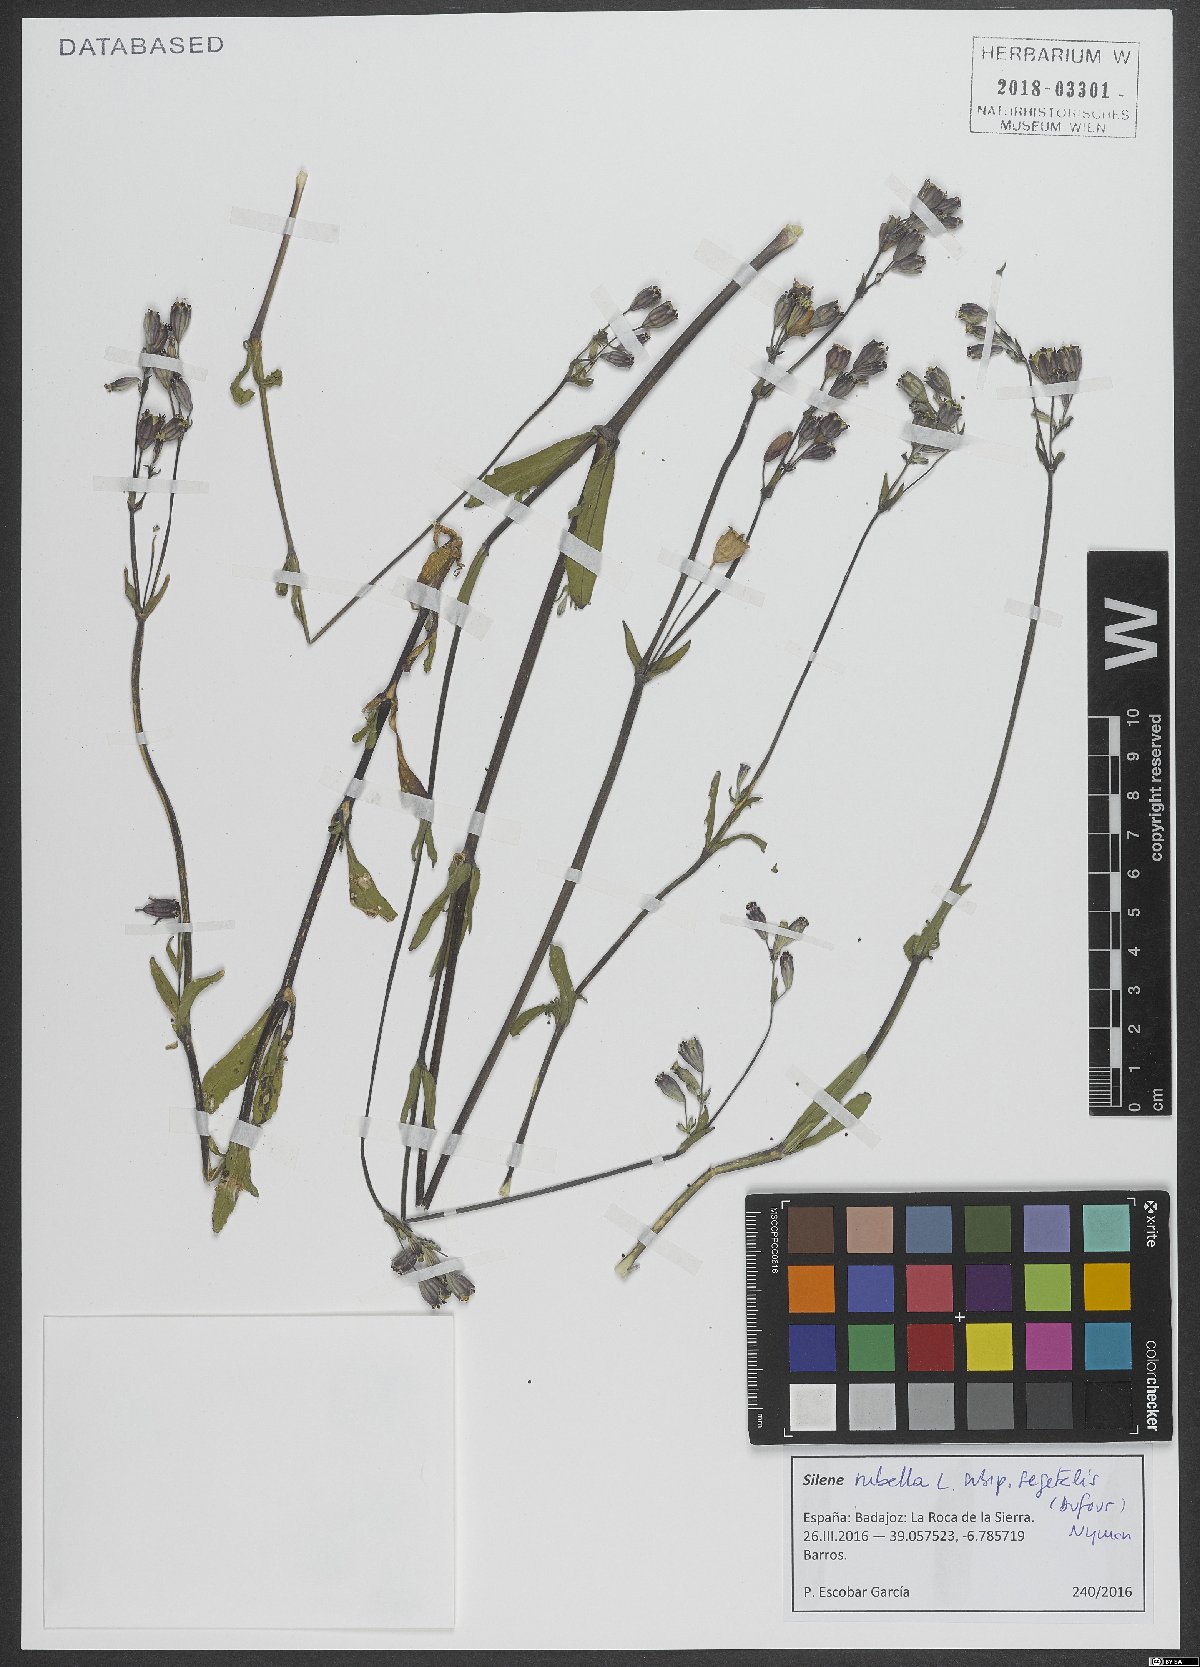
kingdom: Plantae
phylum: Tracheophyta
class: Magnoliopsida
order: Caryophyllales
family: Caryophyllaceae
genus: Silene
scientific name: Silene diversifolia
